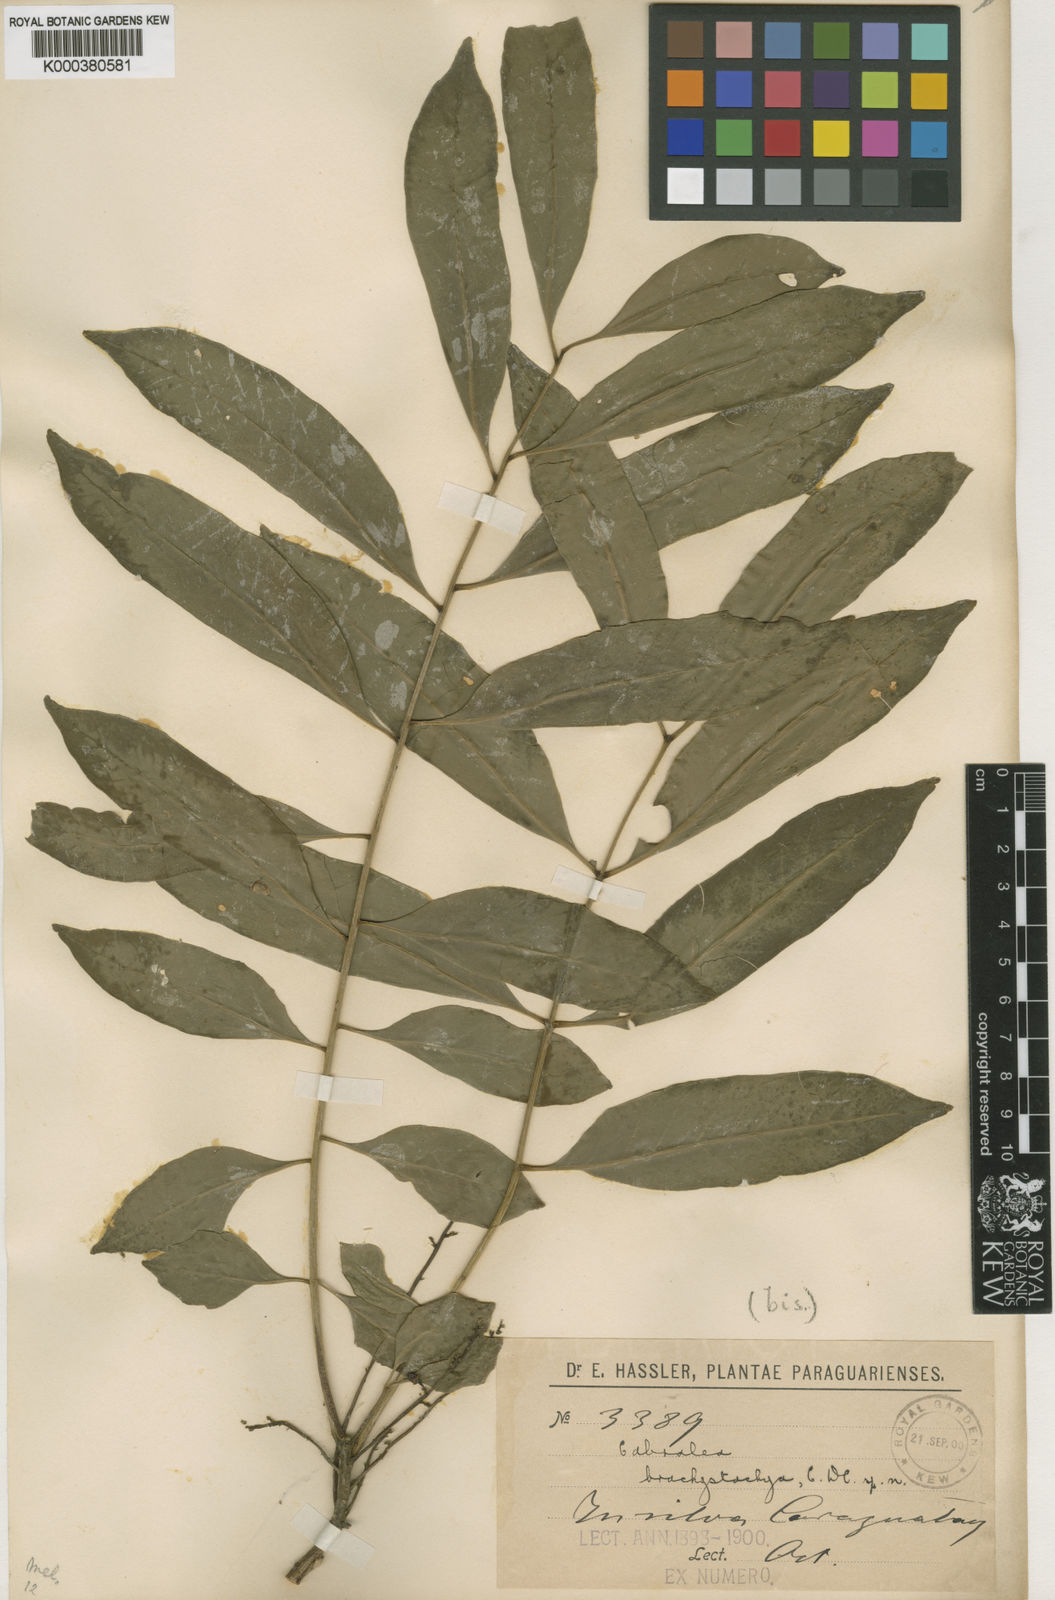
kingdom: Plantae
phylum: Tracheophyta
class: Magnoliopsida
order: Sapindales
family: Meliaceae
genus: Cabralea
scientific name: Cabralea canjerana
